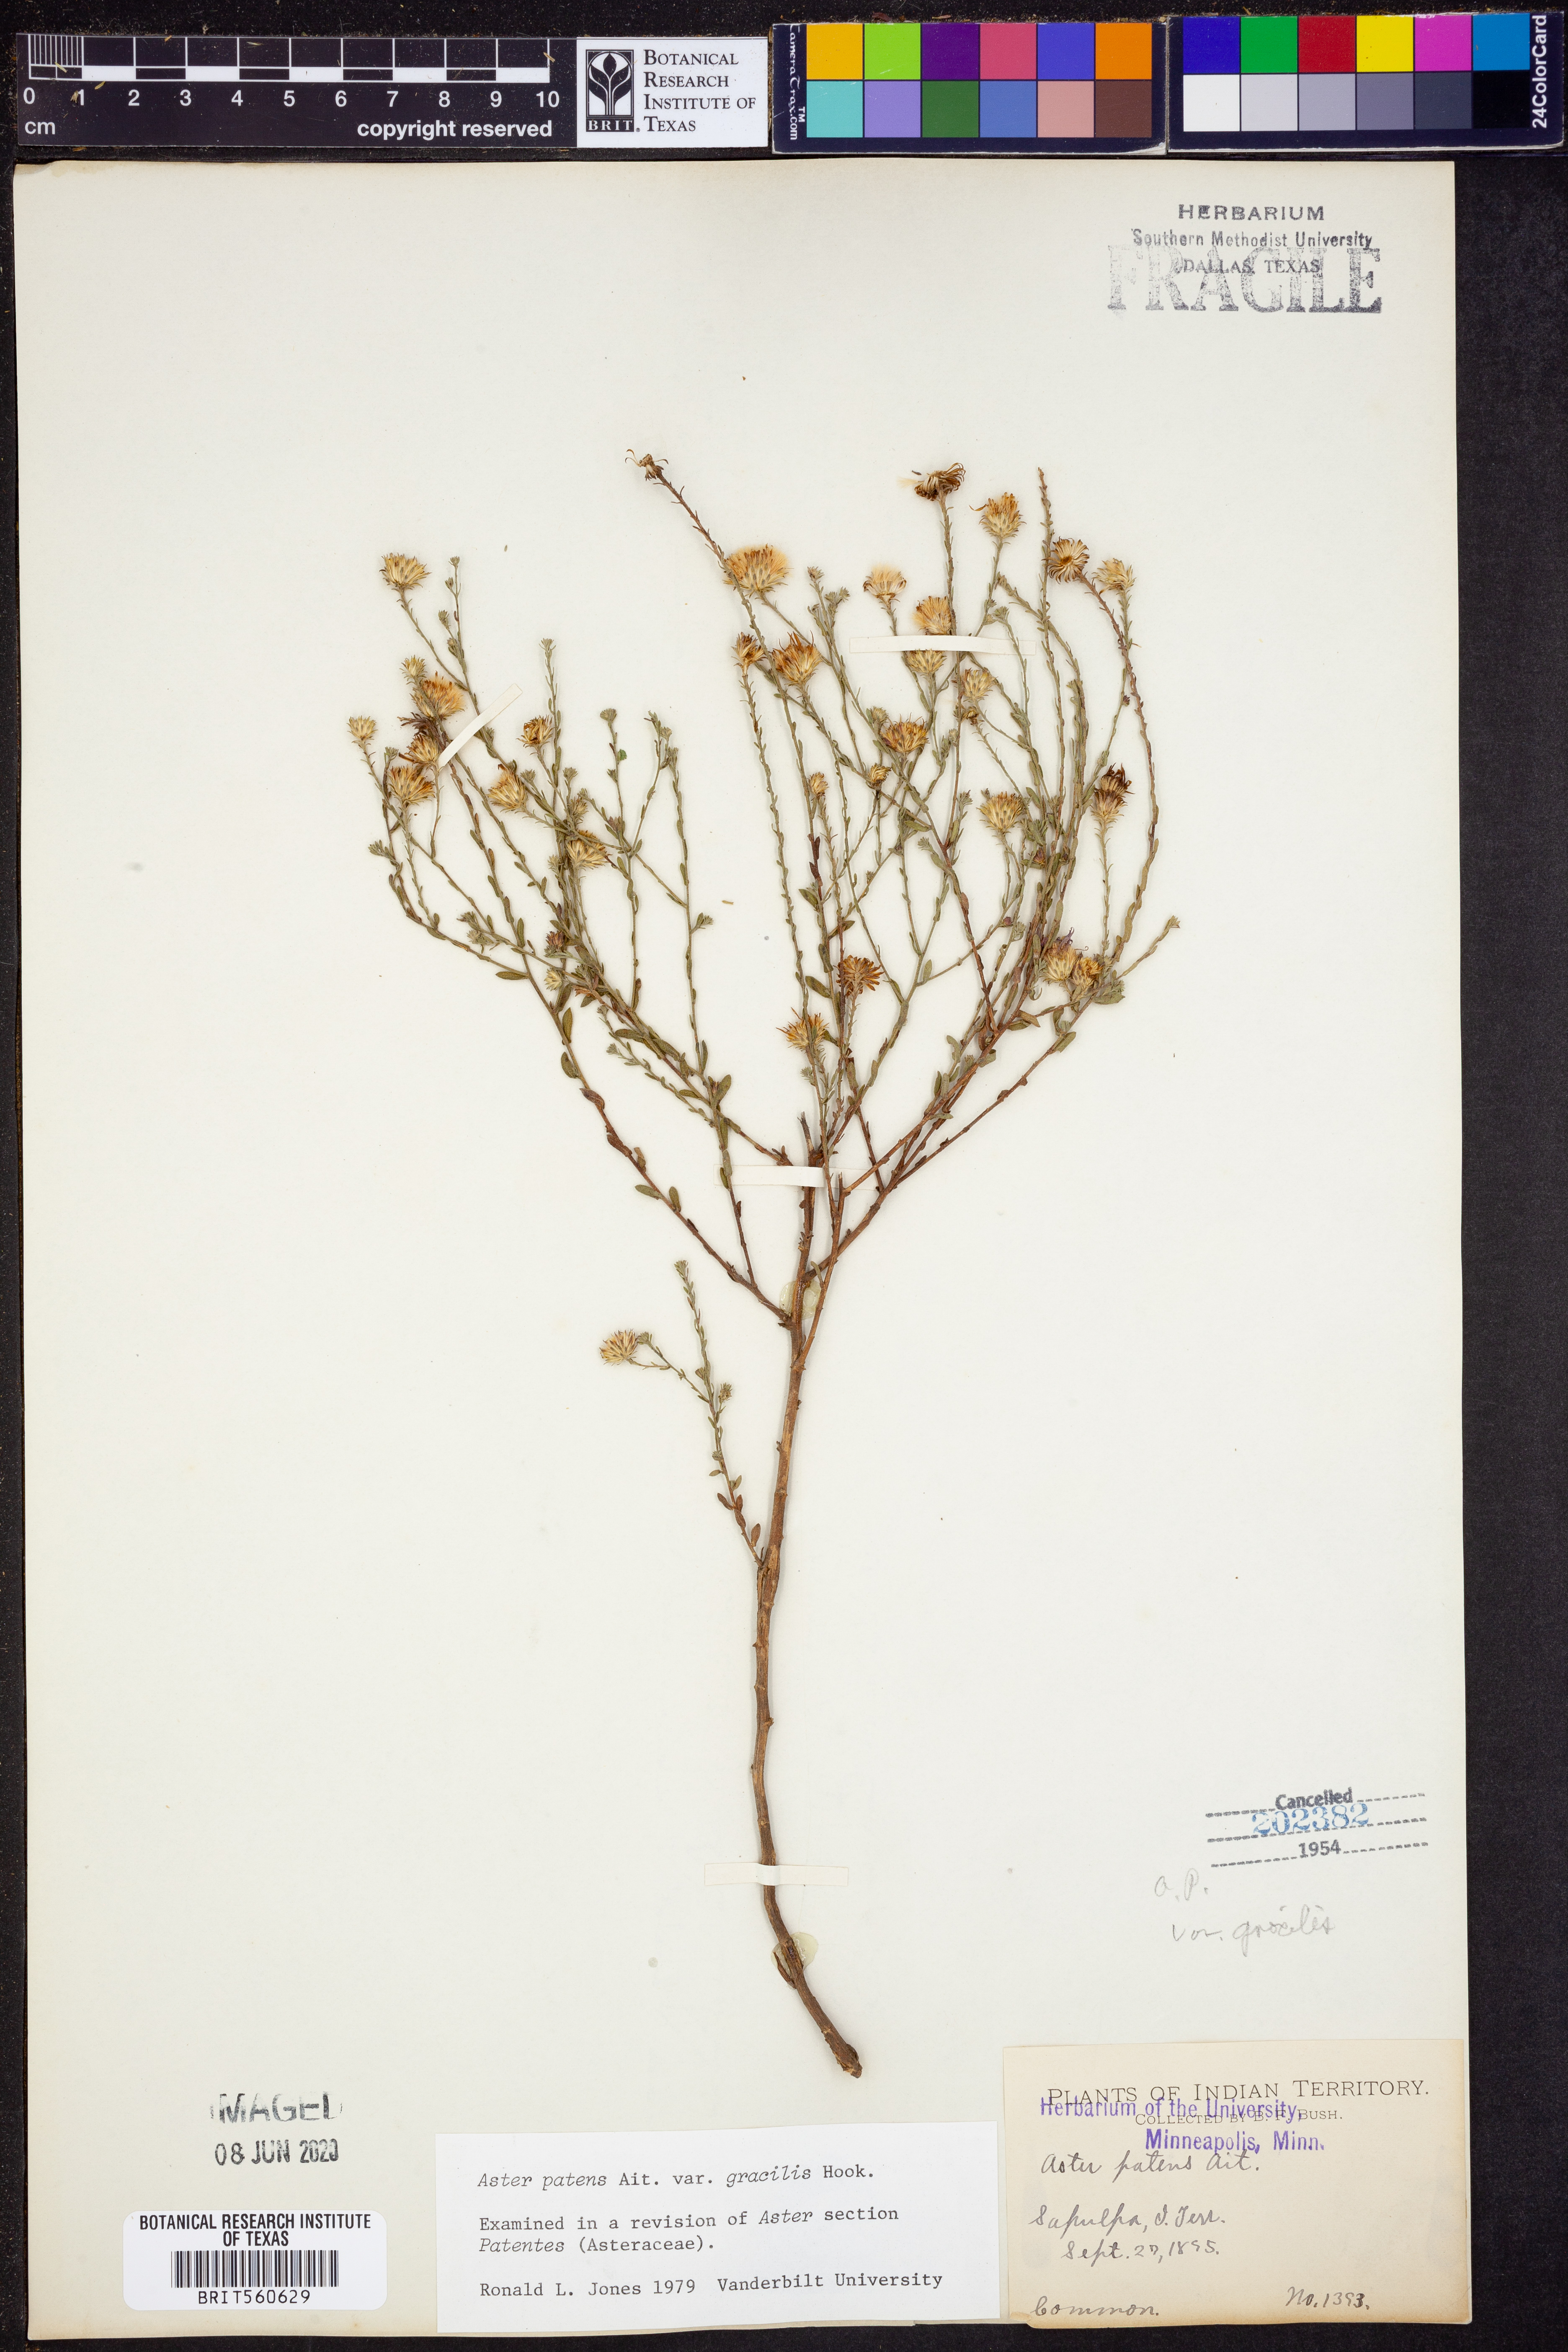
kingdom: Plantae
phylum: Tracheophyta
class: Magnoliopsida
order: Asterales
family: Asteraceae
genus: Symphyotrichum
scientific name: Symphyotrichum patens
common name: Late purple aster
